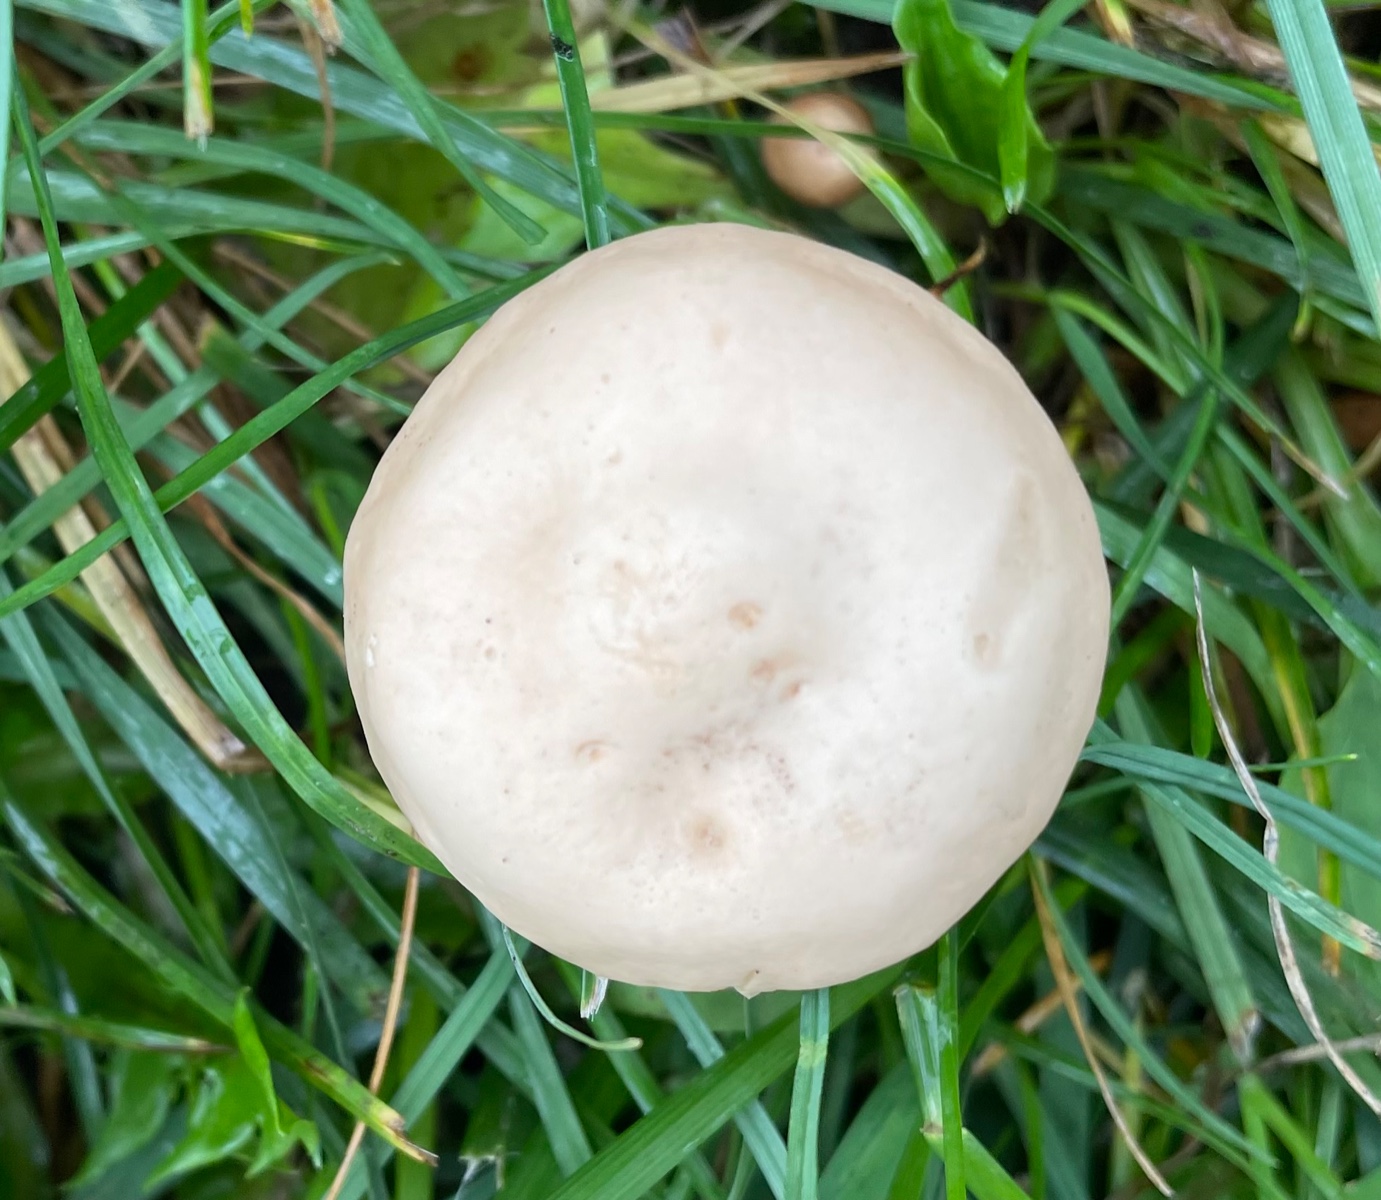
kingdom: Fungi
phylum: Basidiomycota
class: Agaricomycetes
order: Agaricales
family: Marasmiaceae
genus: Marasmius
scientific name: Marasmius oreades
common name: elledans-bruskhat
